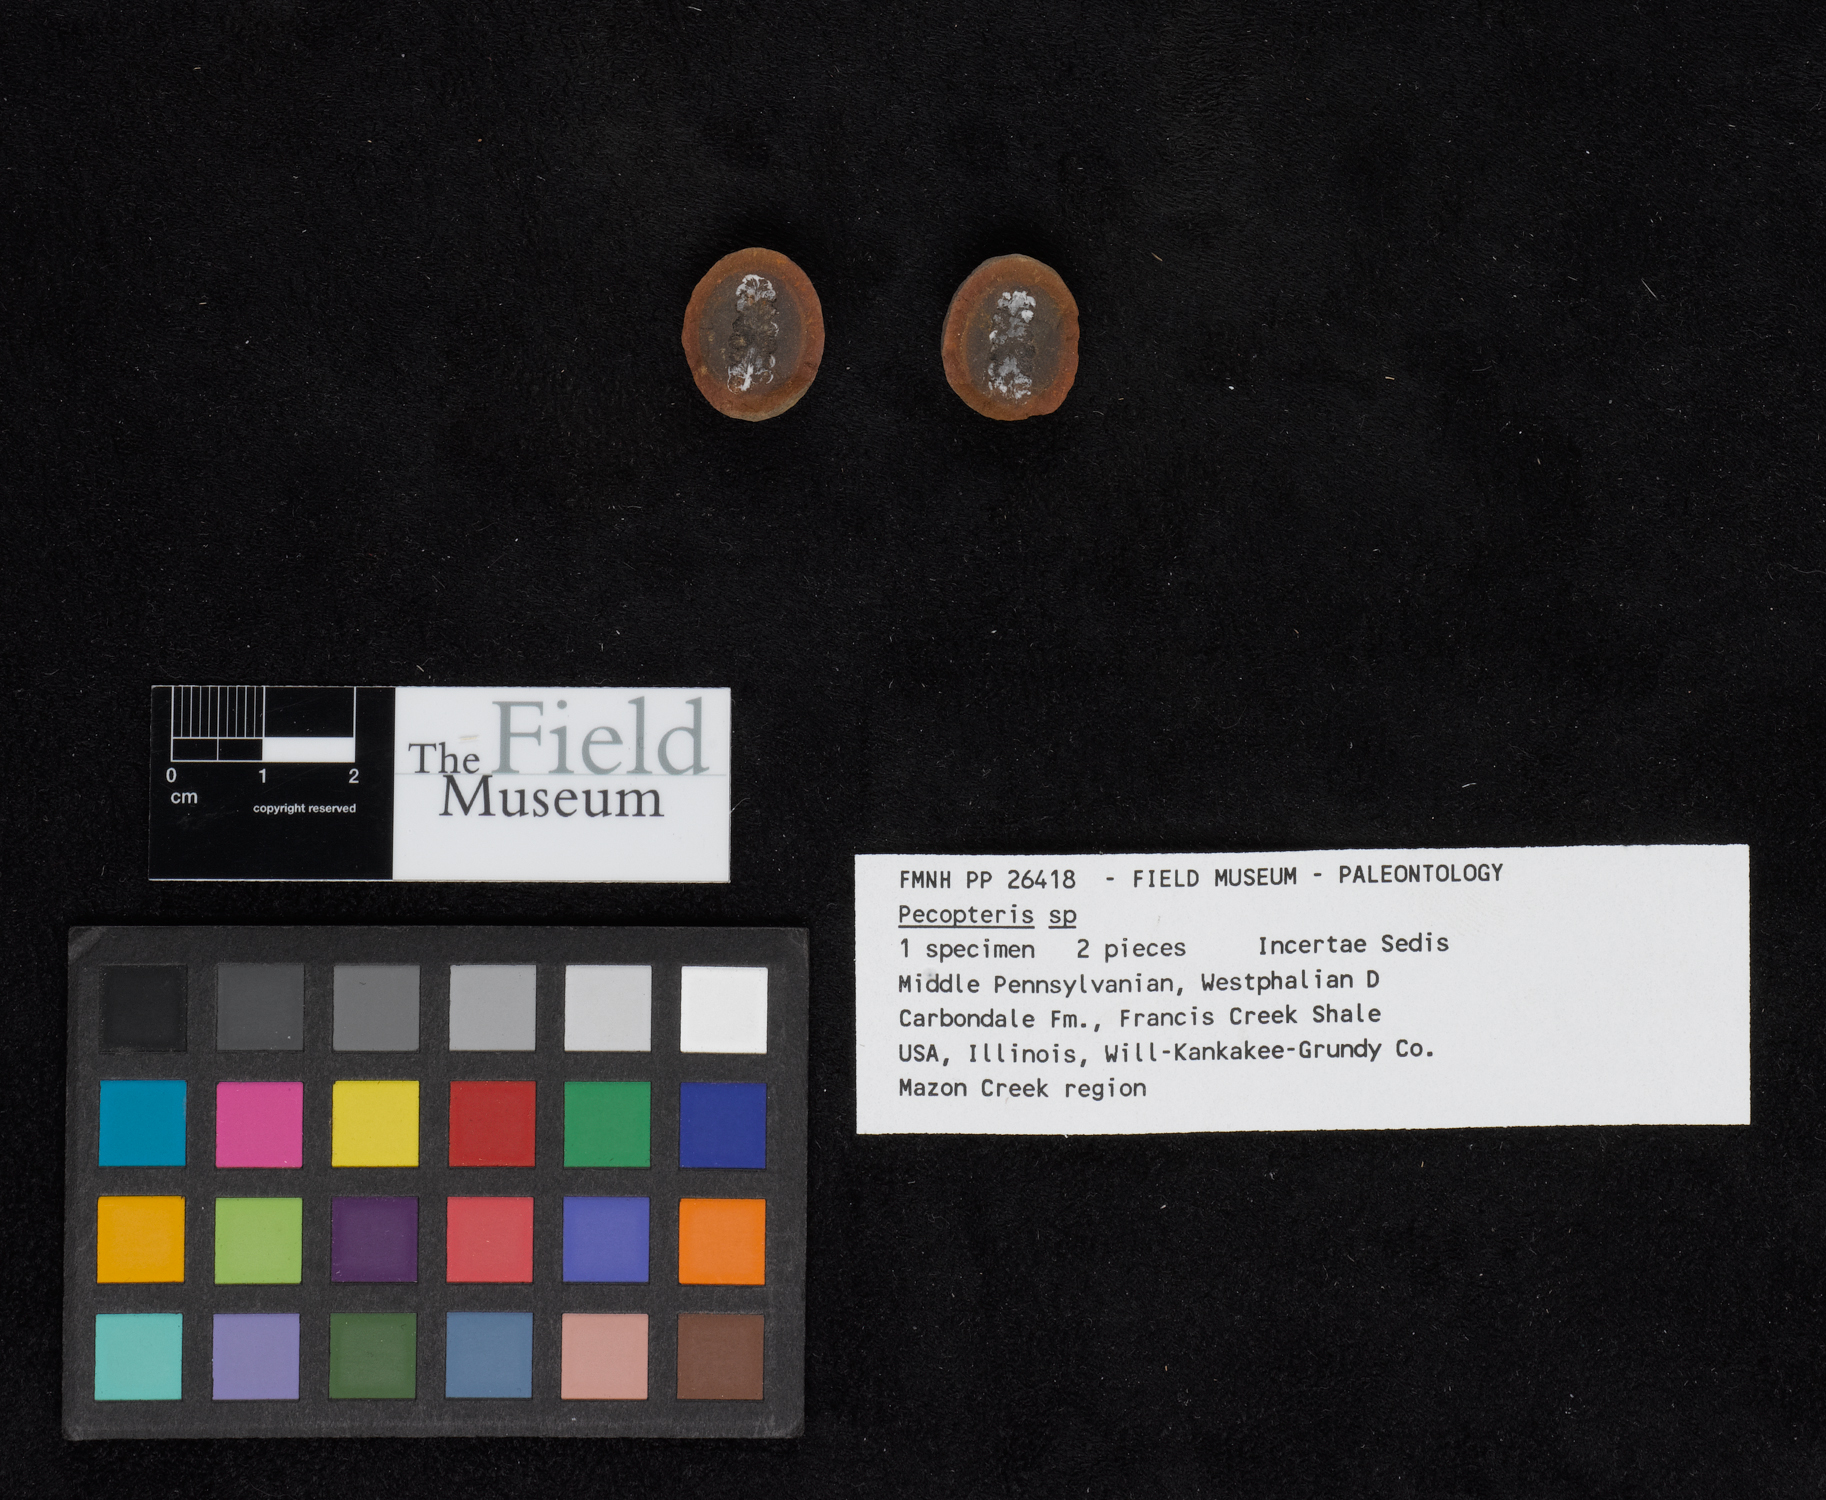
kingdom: Plantae
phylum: Tracheophyta
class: Polypodiopsida
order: Marattiales
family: Asterothecaceae
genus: Pecopteris
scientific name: Pecopteris
